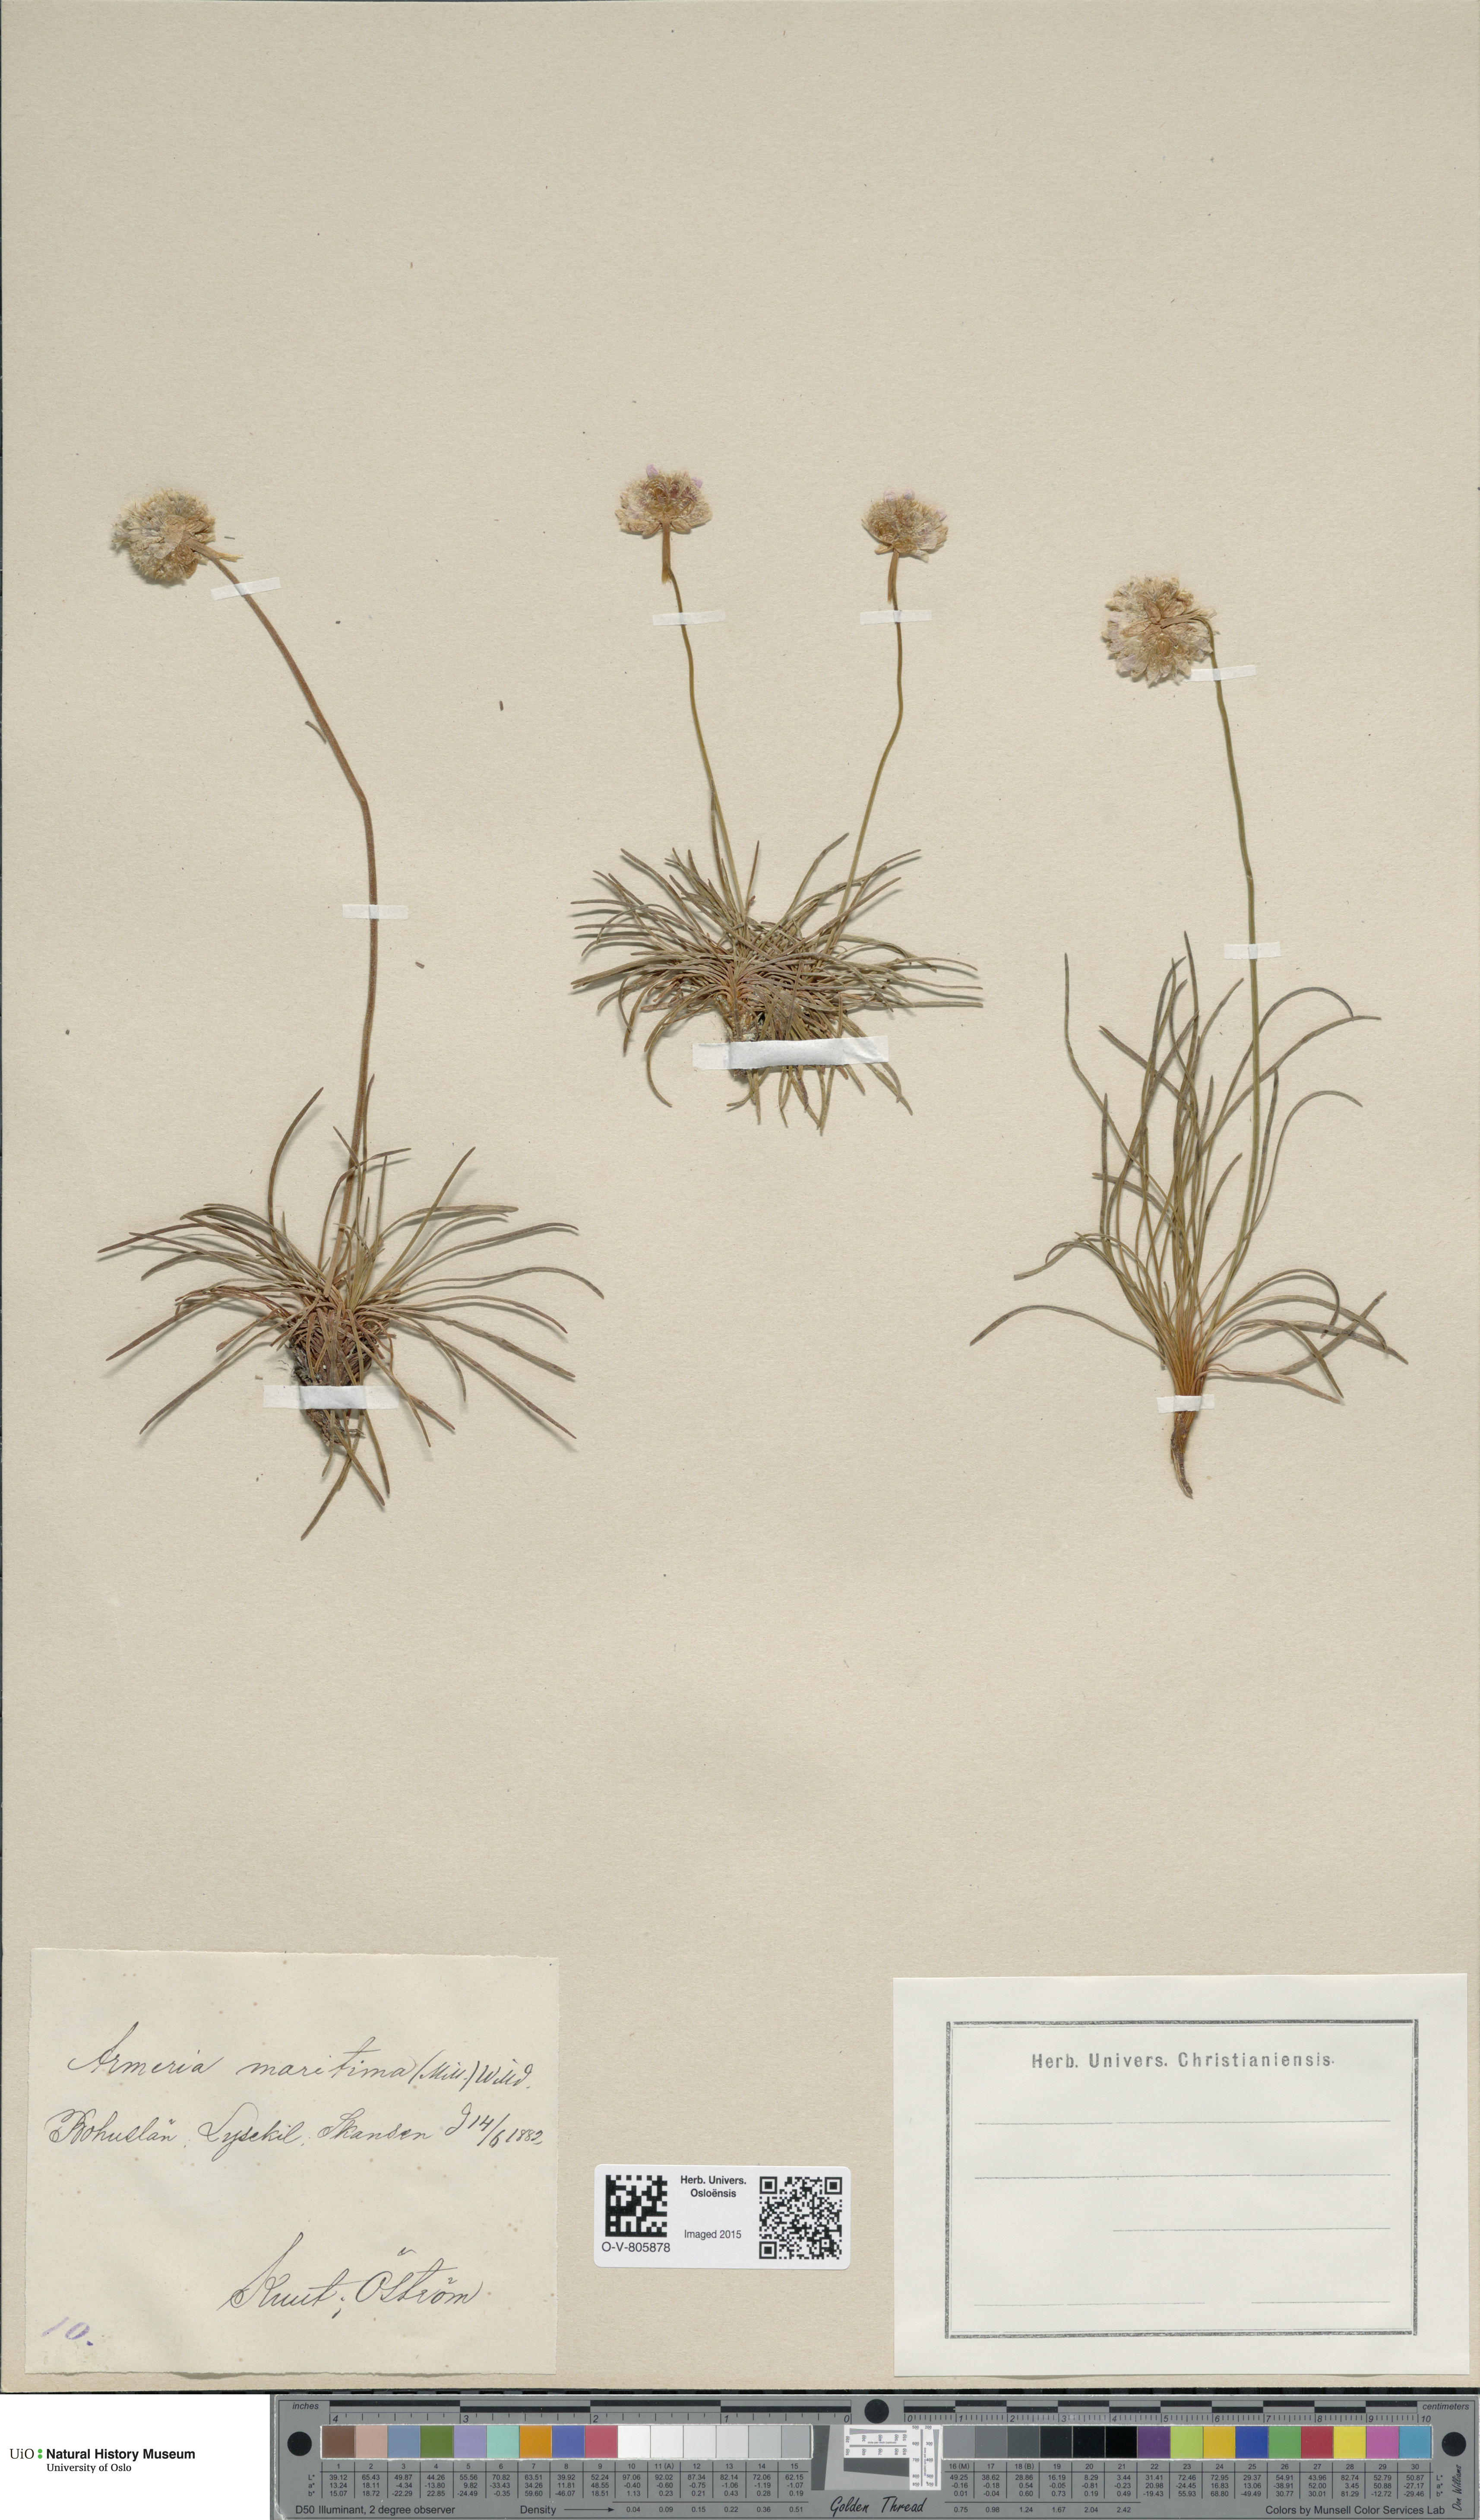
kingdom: Plantae
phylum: Tracheophyta
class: Magnoliopsida
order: Caryophyllales
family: Plumbaginaceae
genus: Armeria
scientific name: Armeria maritima
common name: Thrift
